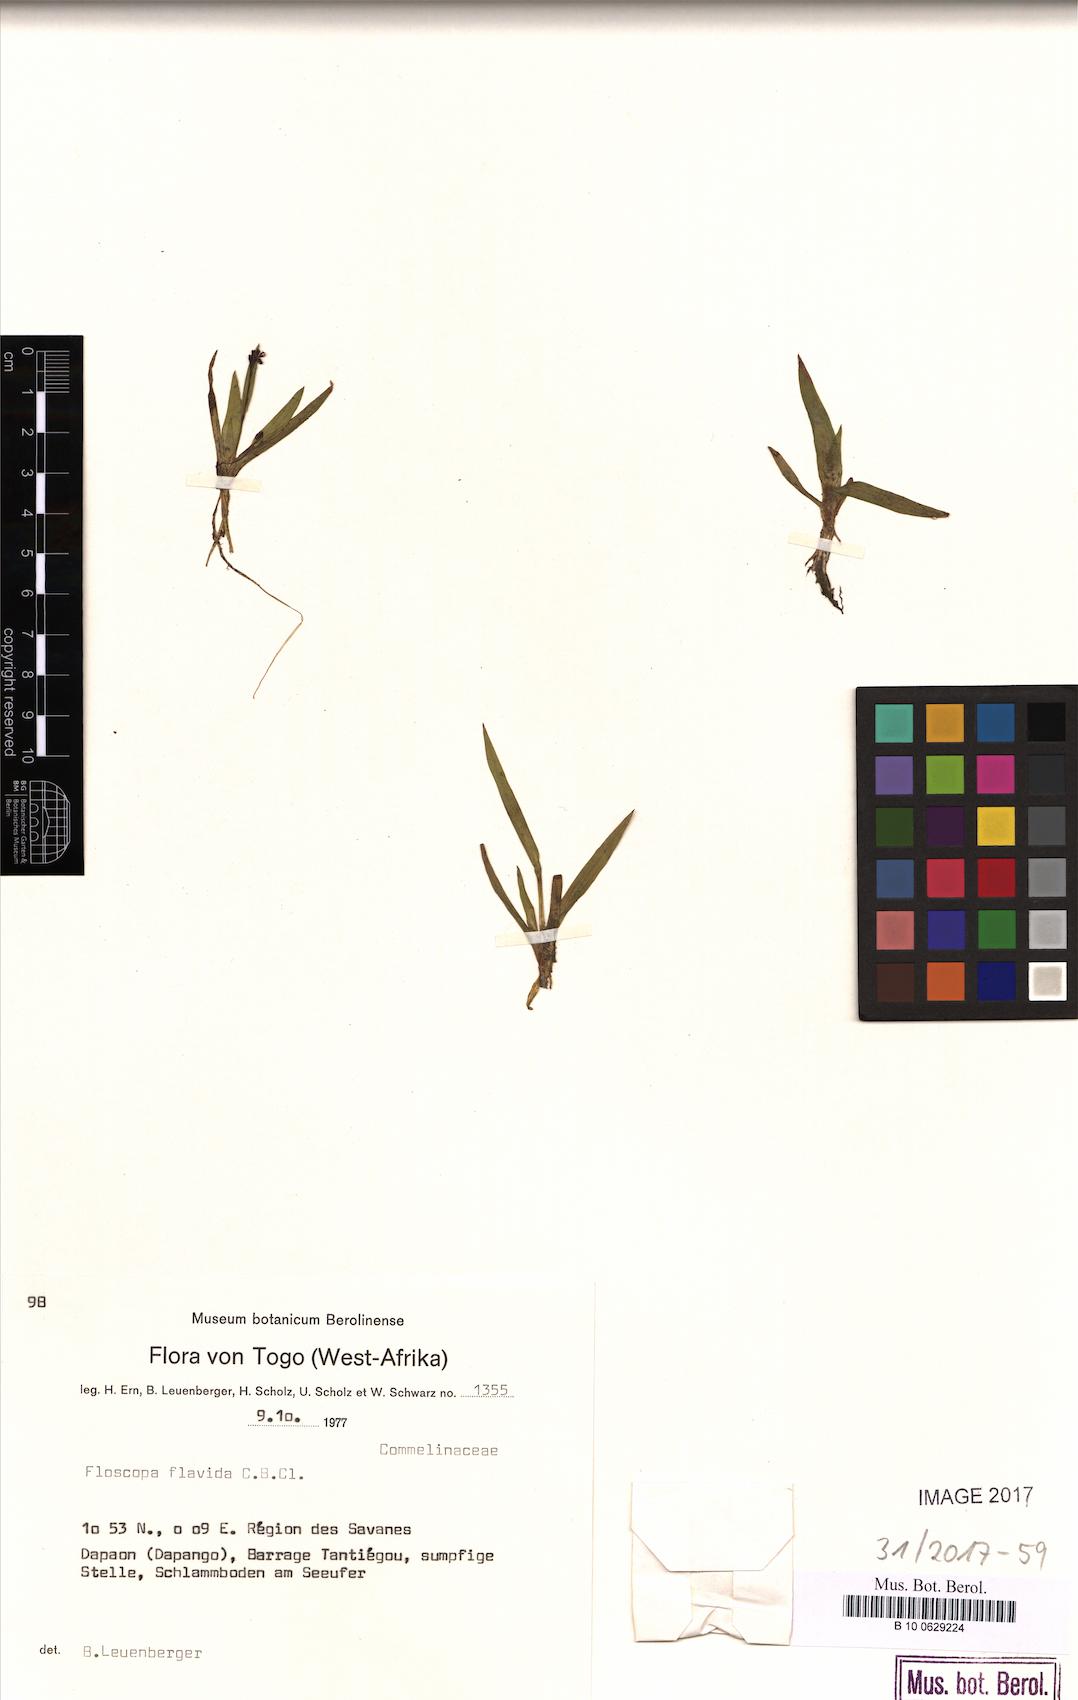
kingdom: Plantae
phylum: Tracheophyta
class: Liliopsida
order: Commelinales
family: Commelinaceae
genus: Floscopa
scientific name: Floscopa flavida
